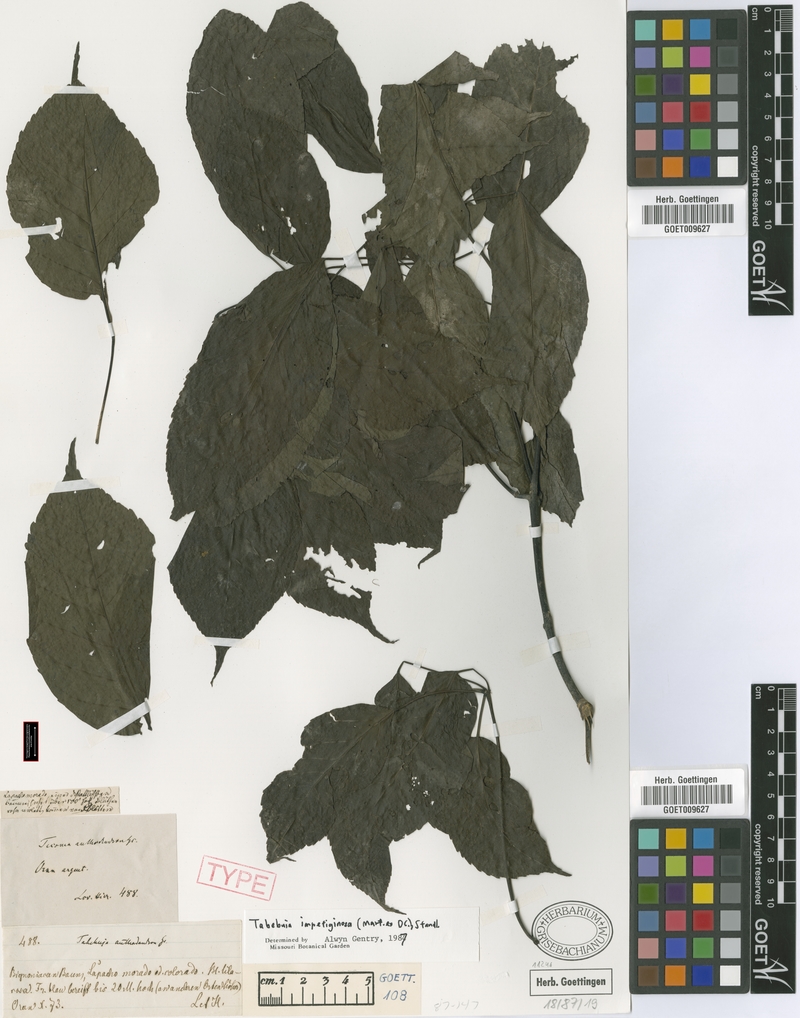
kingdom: Plantae
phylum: Tracheophyta
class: Magnoliopsida
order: Lamiales
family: Bignoniaceae
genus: Handroanthus
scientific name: Handroanthus impetiginosum
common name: Pink trumpet tree
